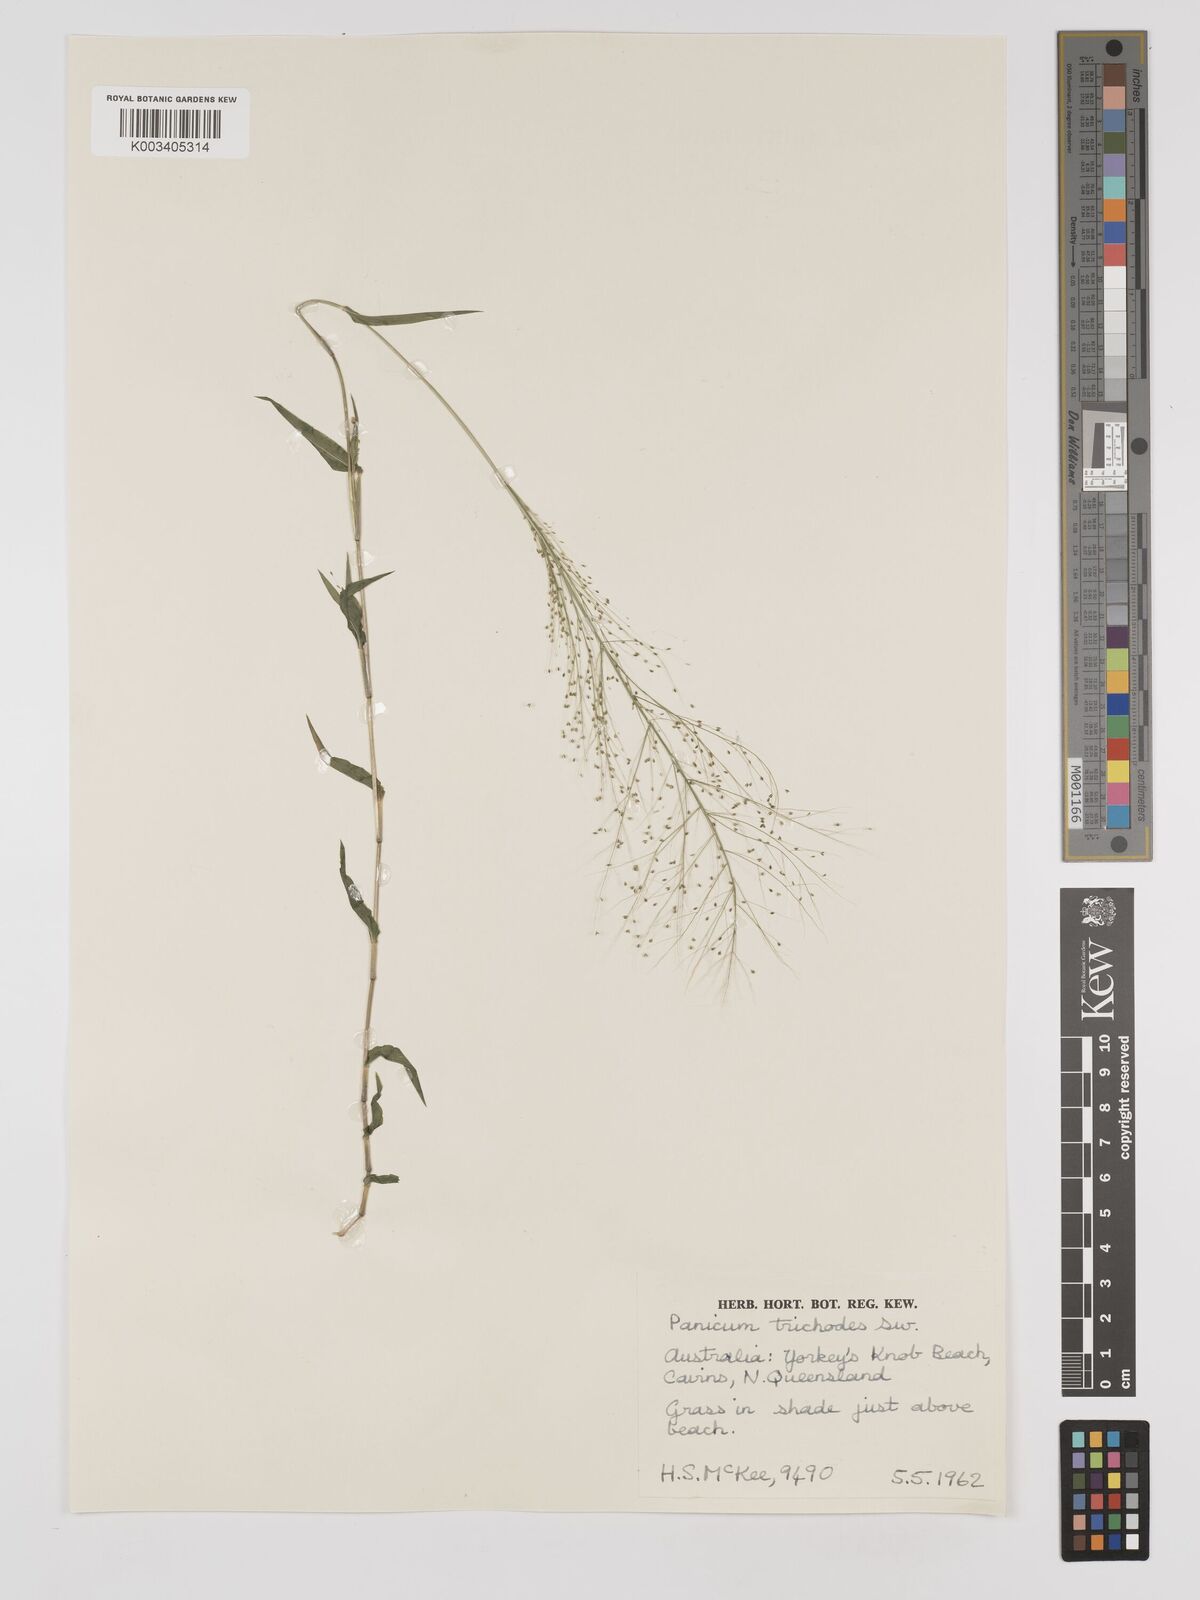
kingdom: Plantae
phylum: Tracheophyta
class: Liliopsida
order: Poales
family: Poaceae
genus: Panicum
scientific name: Panicum trichoides
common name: Tickle grass
